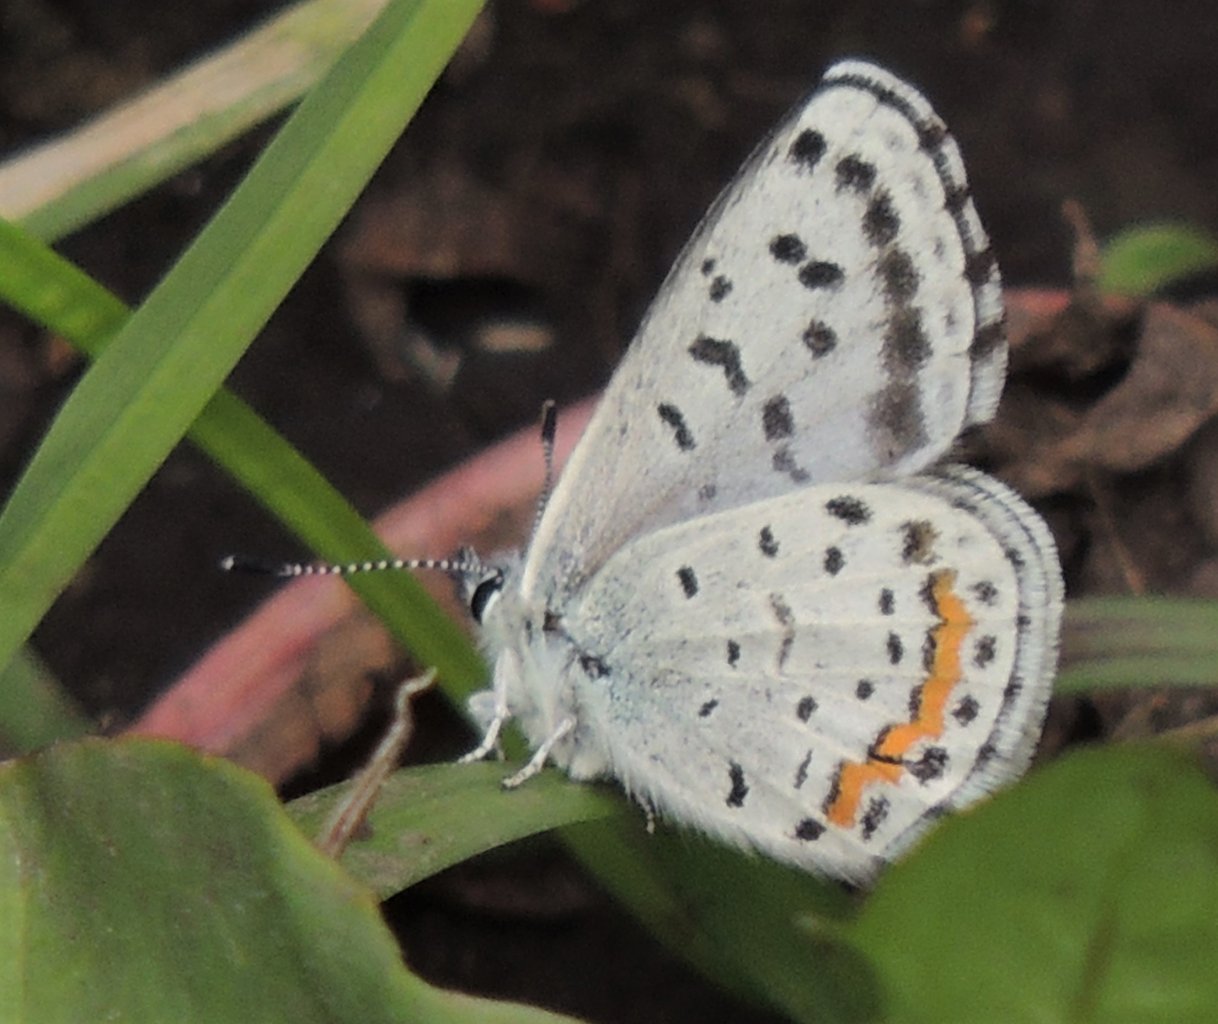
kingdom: Animalia
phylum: Arthropoda
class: Insecta
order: Lepidoptera
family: Lycaenidae
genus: Euphilotes
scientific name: Euphilotes battoides
